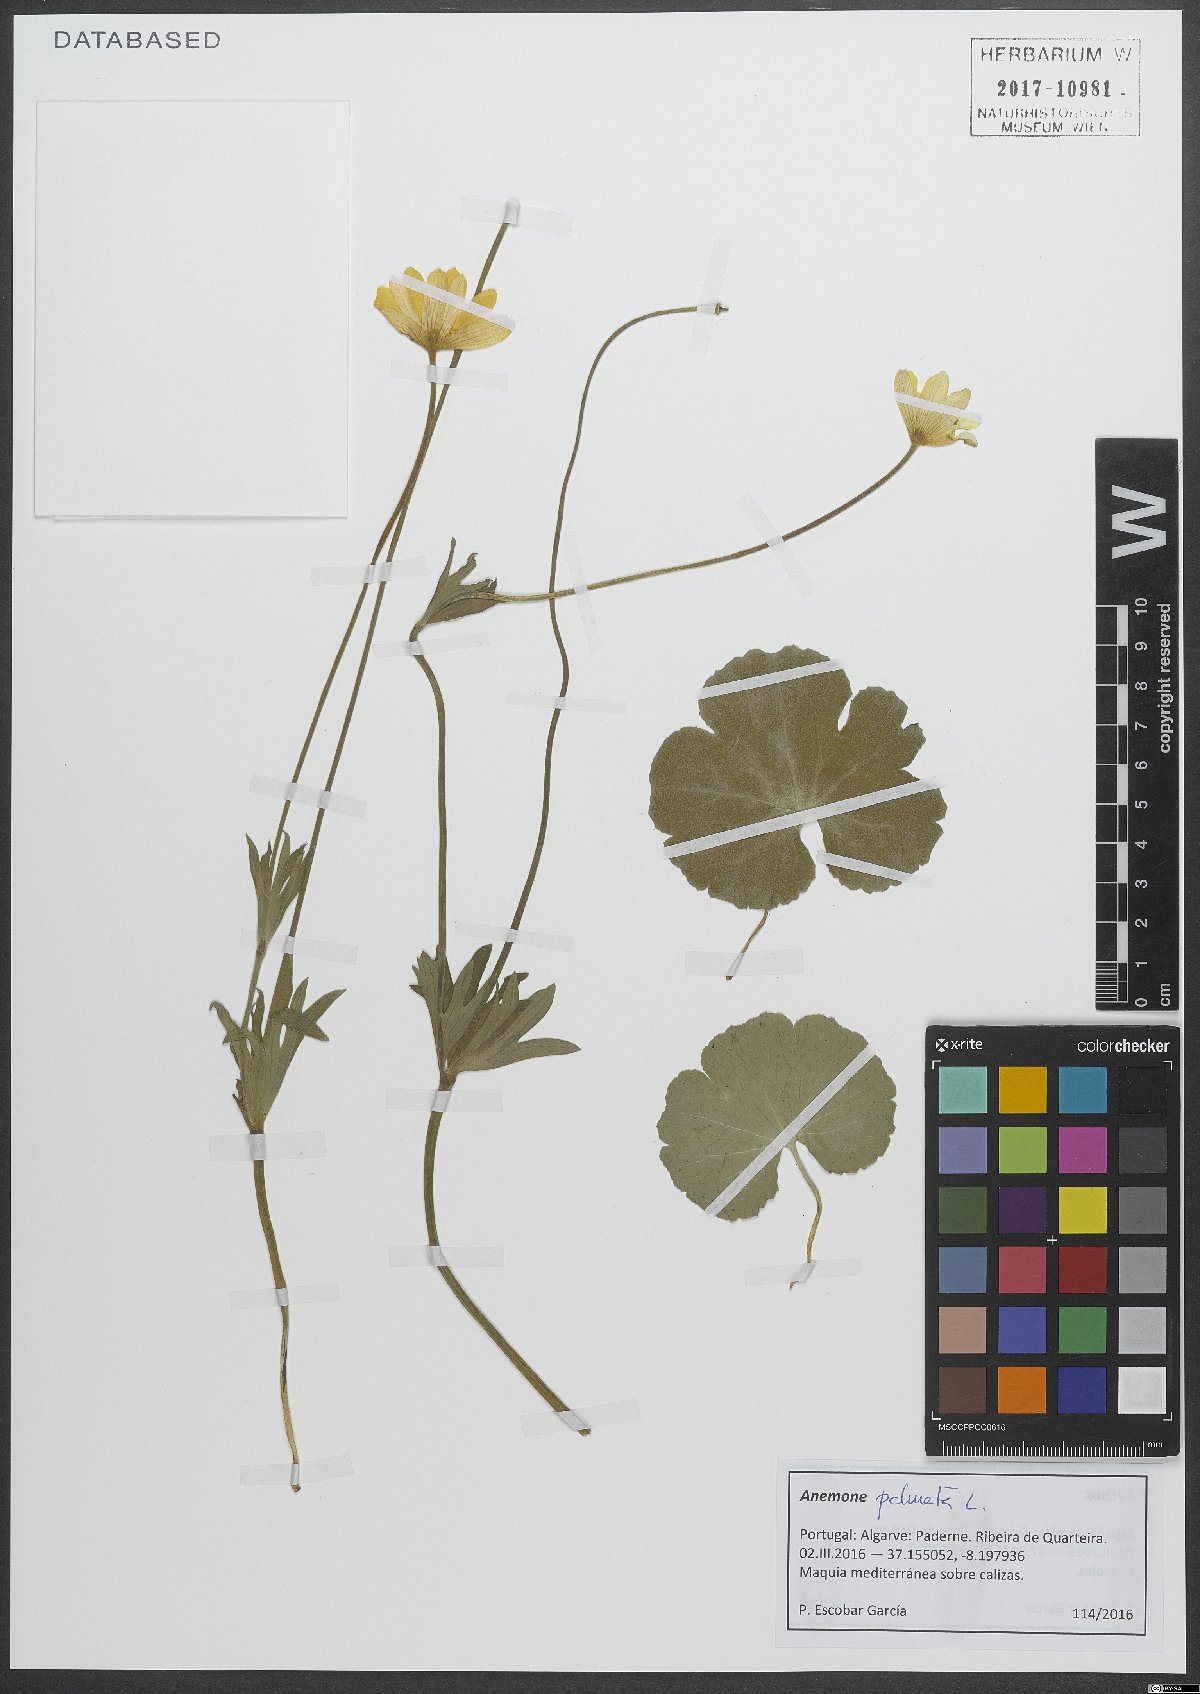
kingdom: Plantae
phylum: Tracheophyta
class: Magnoliopsida
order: Ranunculales
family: Ranunculaceae
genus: Anemone
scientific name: Anemone palmata
